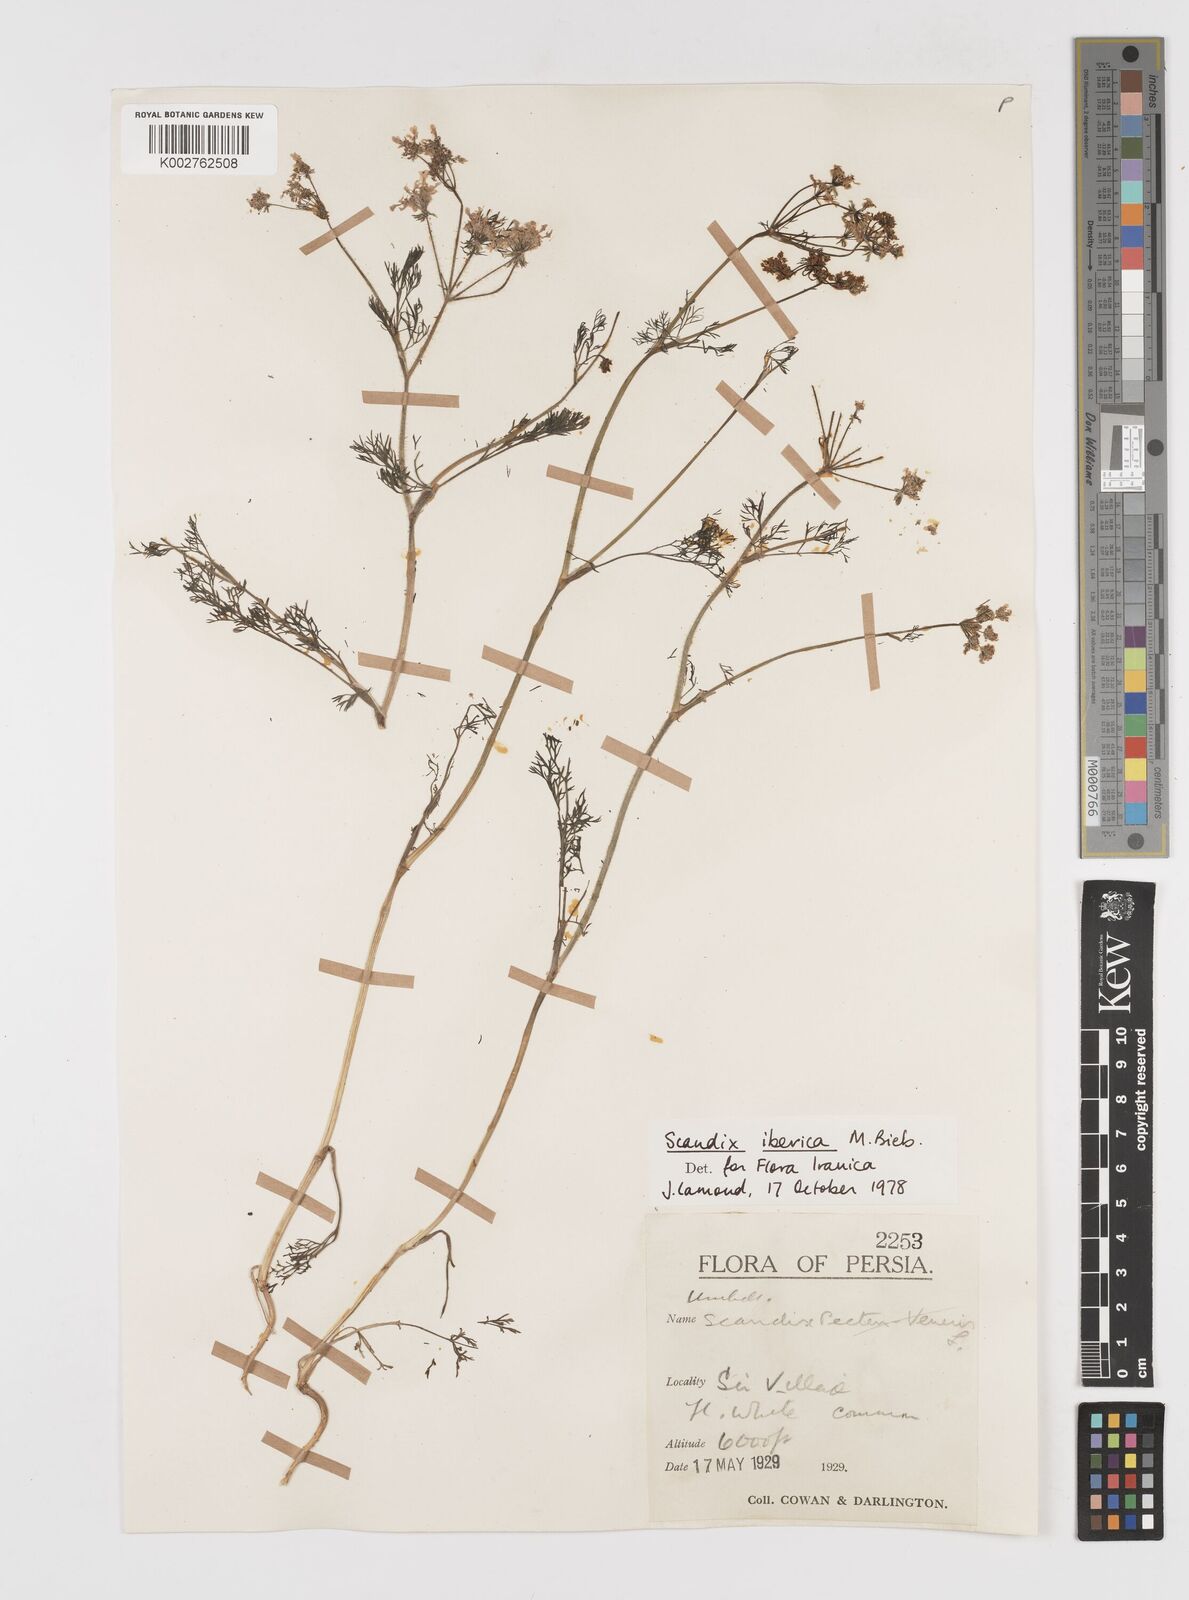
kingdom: Plantae
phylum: Tracheophyta
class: Magnoliopsida
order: Apiales
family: Apiaceae
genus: Scandix
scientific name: Scandix iberica
